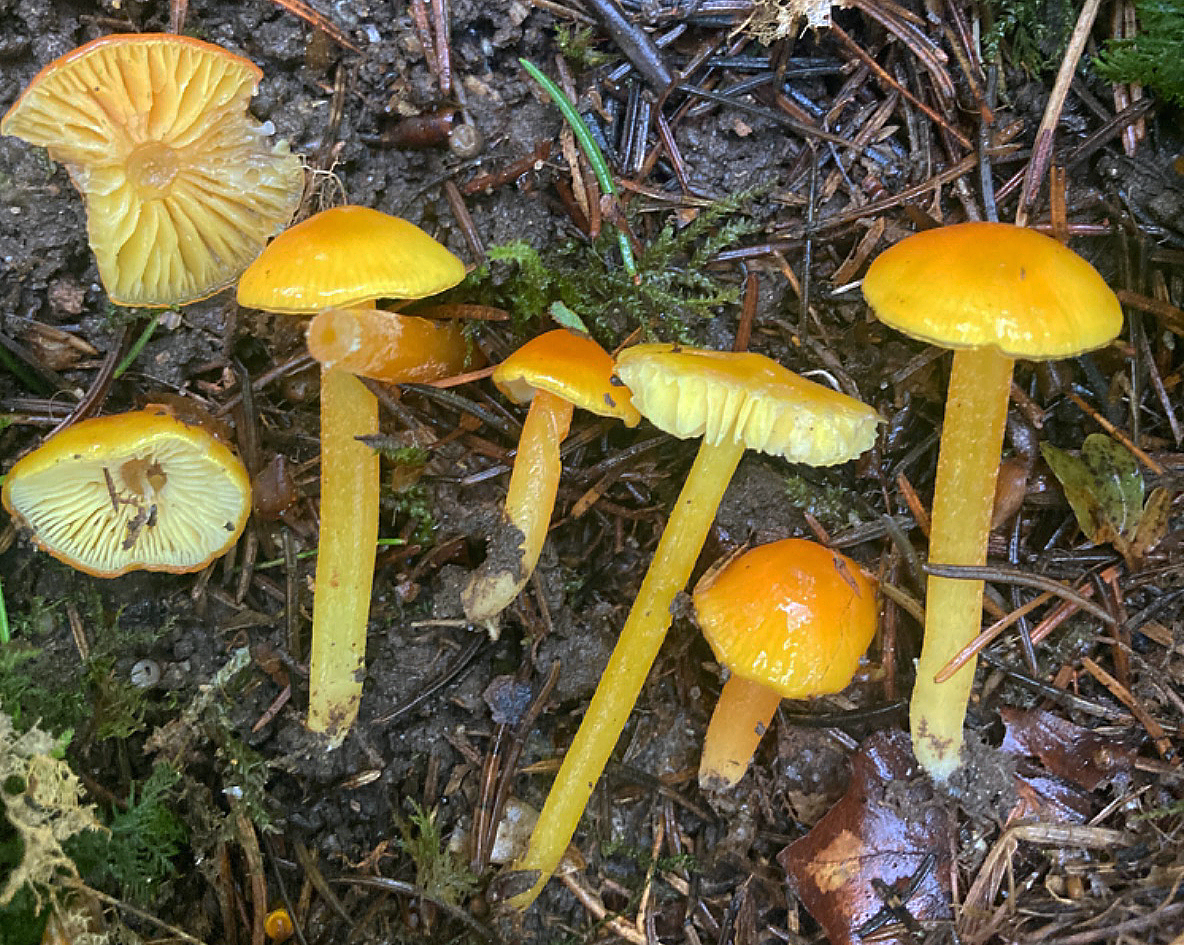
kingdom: Fungi
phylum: Basidiomycota
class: Agaricomycetes
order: Agaricales
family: Hygrophoraceae
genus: Hygrocybe
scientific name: Hygrocybe chlorophana
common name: gul vokshat
